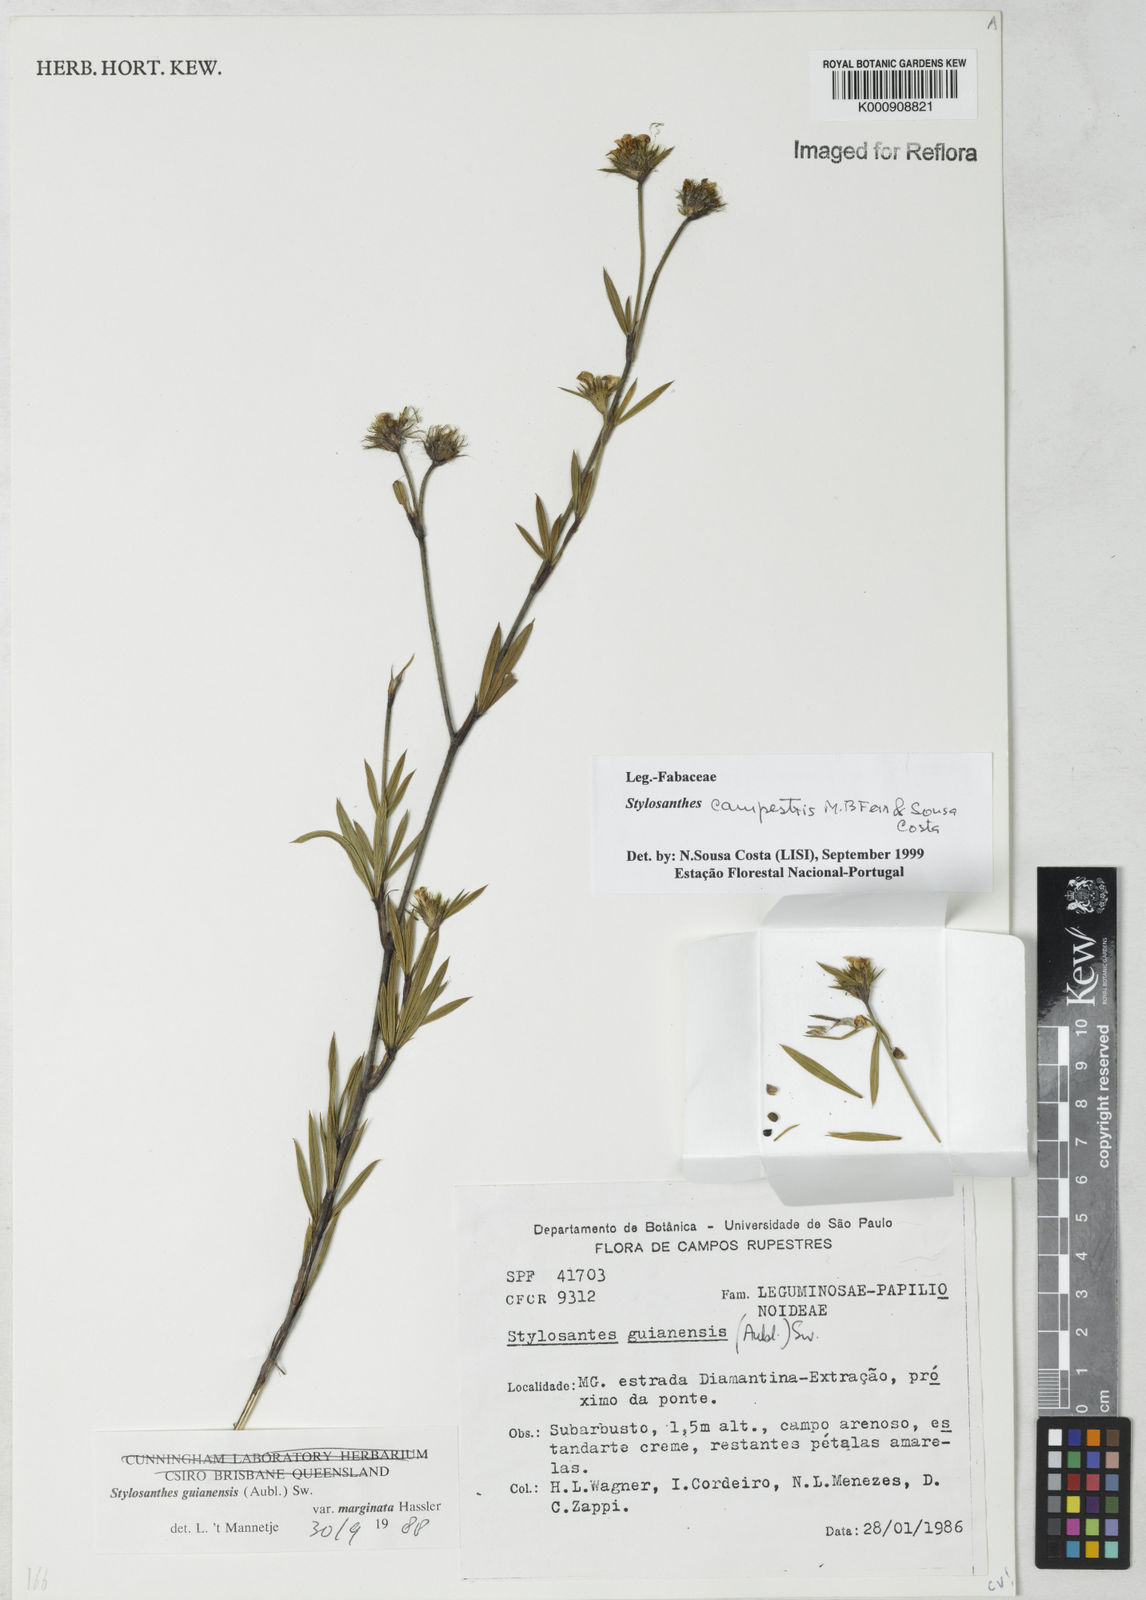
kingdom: Plantae
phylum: Tracheophyta
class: Magnoliopsida
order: Fabales
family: Fabaceae
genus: Stylosanthes
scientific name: Stylosanthes campestris
